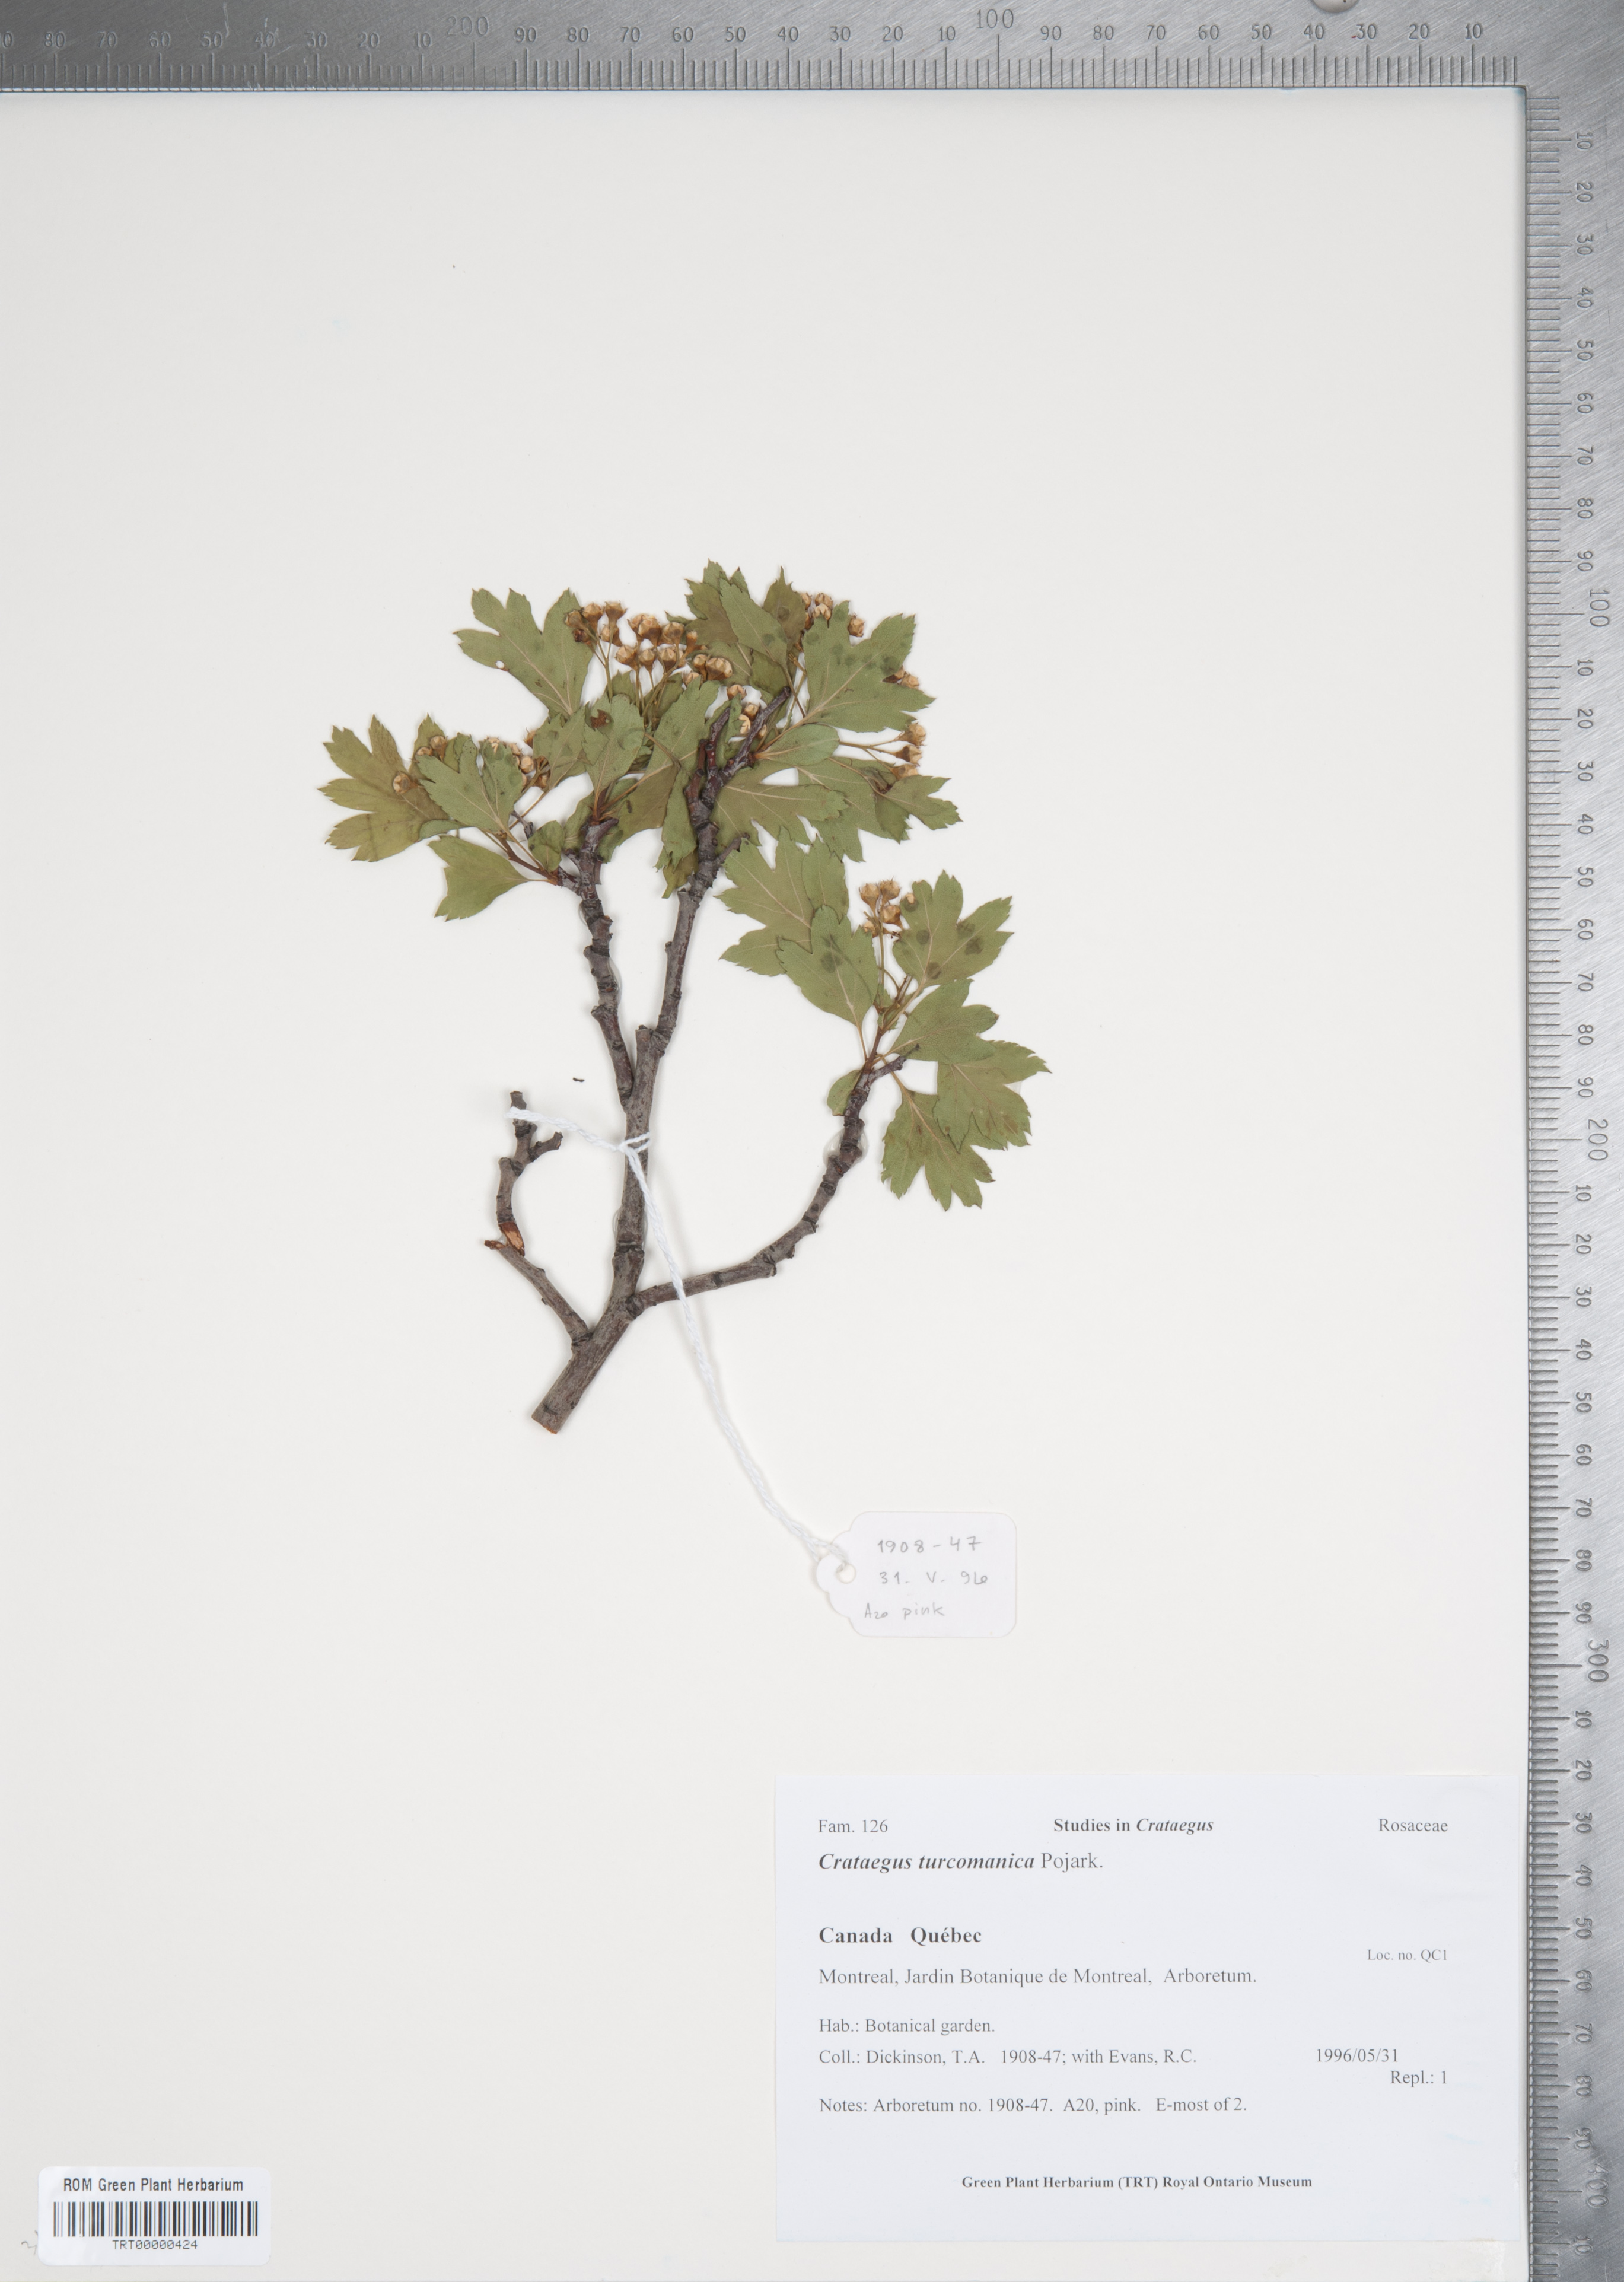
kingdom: Plantae
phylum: Tracheophyta
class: Magnoliopsida
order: Rosales
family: Rosaceae
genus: Crataegus
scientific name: Crataegus pseudoheterophylla
